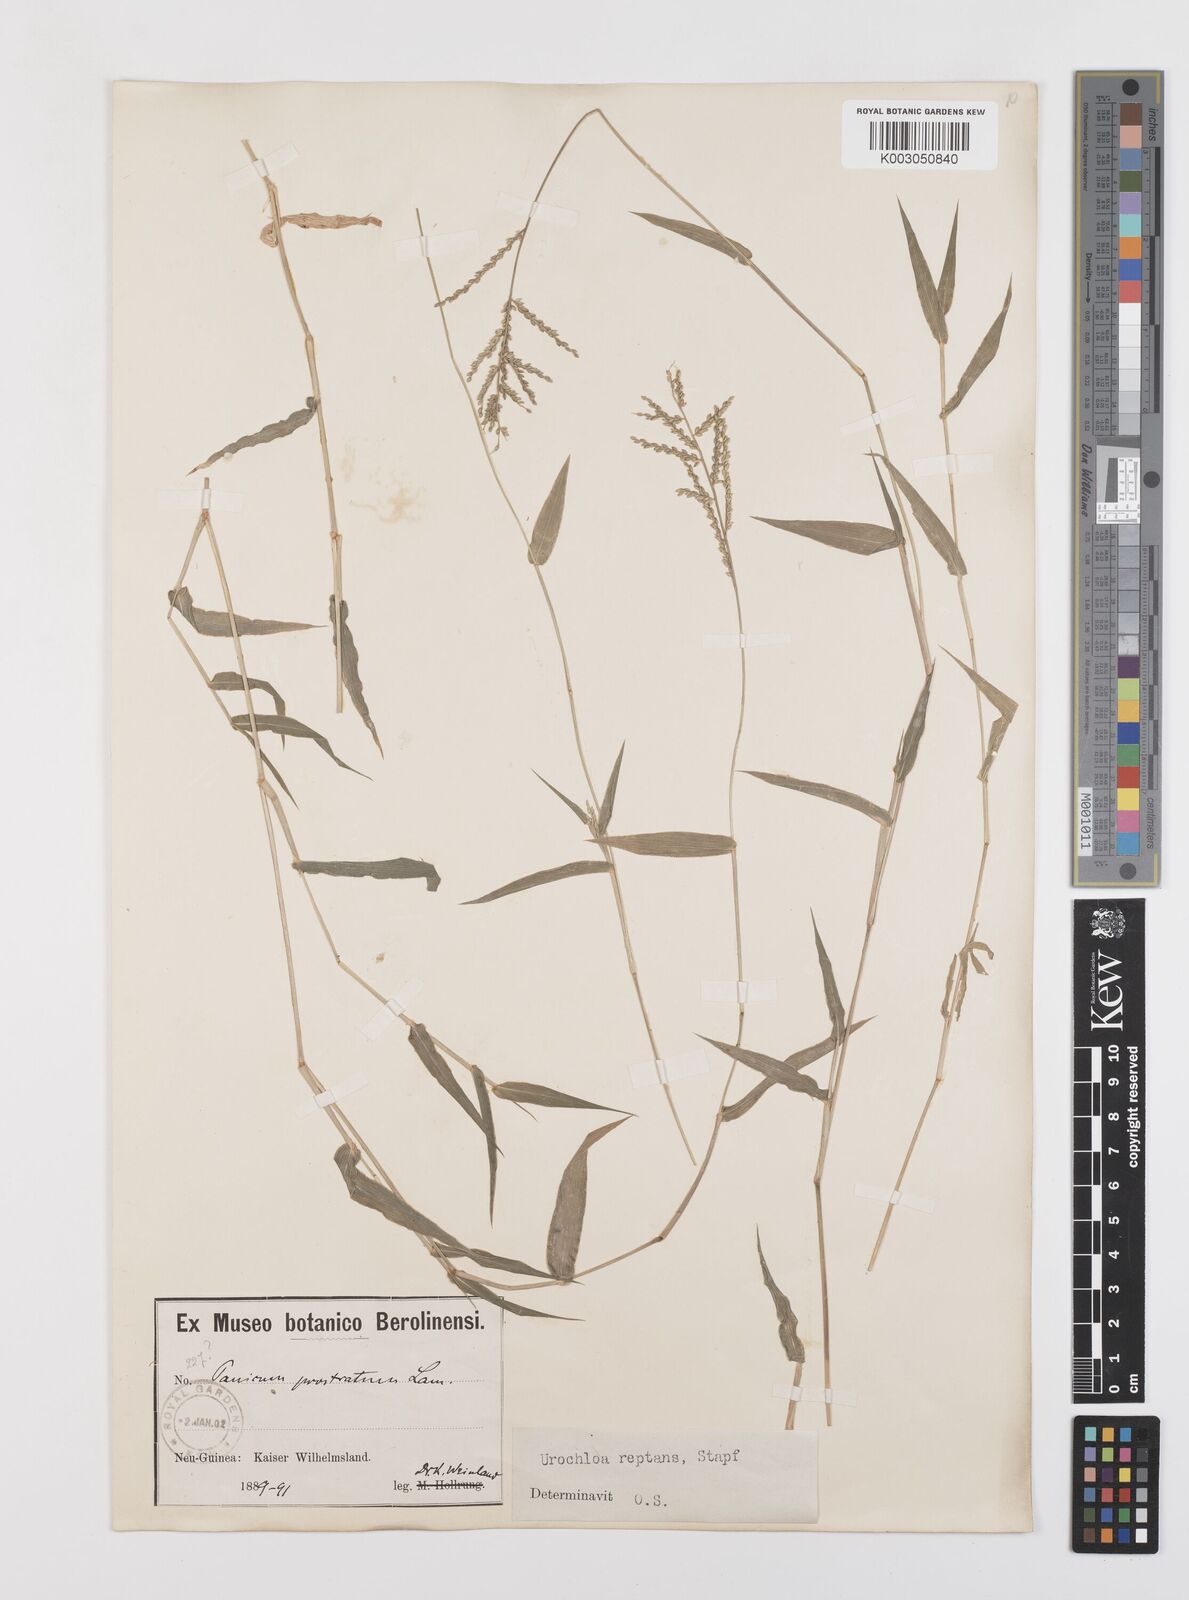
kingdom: Plantae
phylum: Tracheophyta
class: Liliopsida
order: Poales
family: Poaceae
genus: Urochloa
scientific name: Urochloa reptans
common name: Sprawling signalgrass
